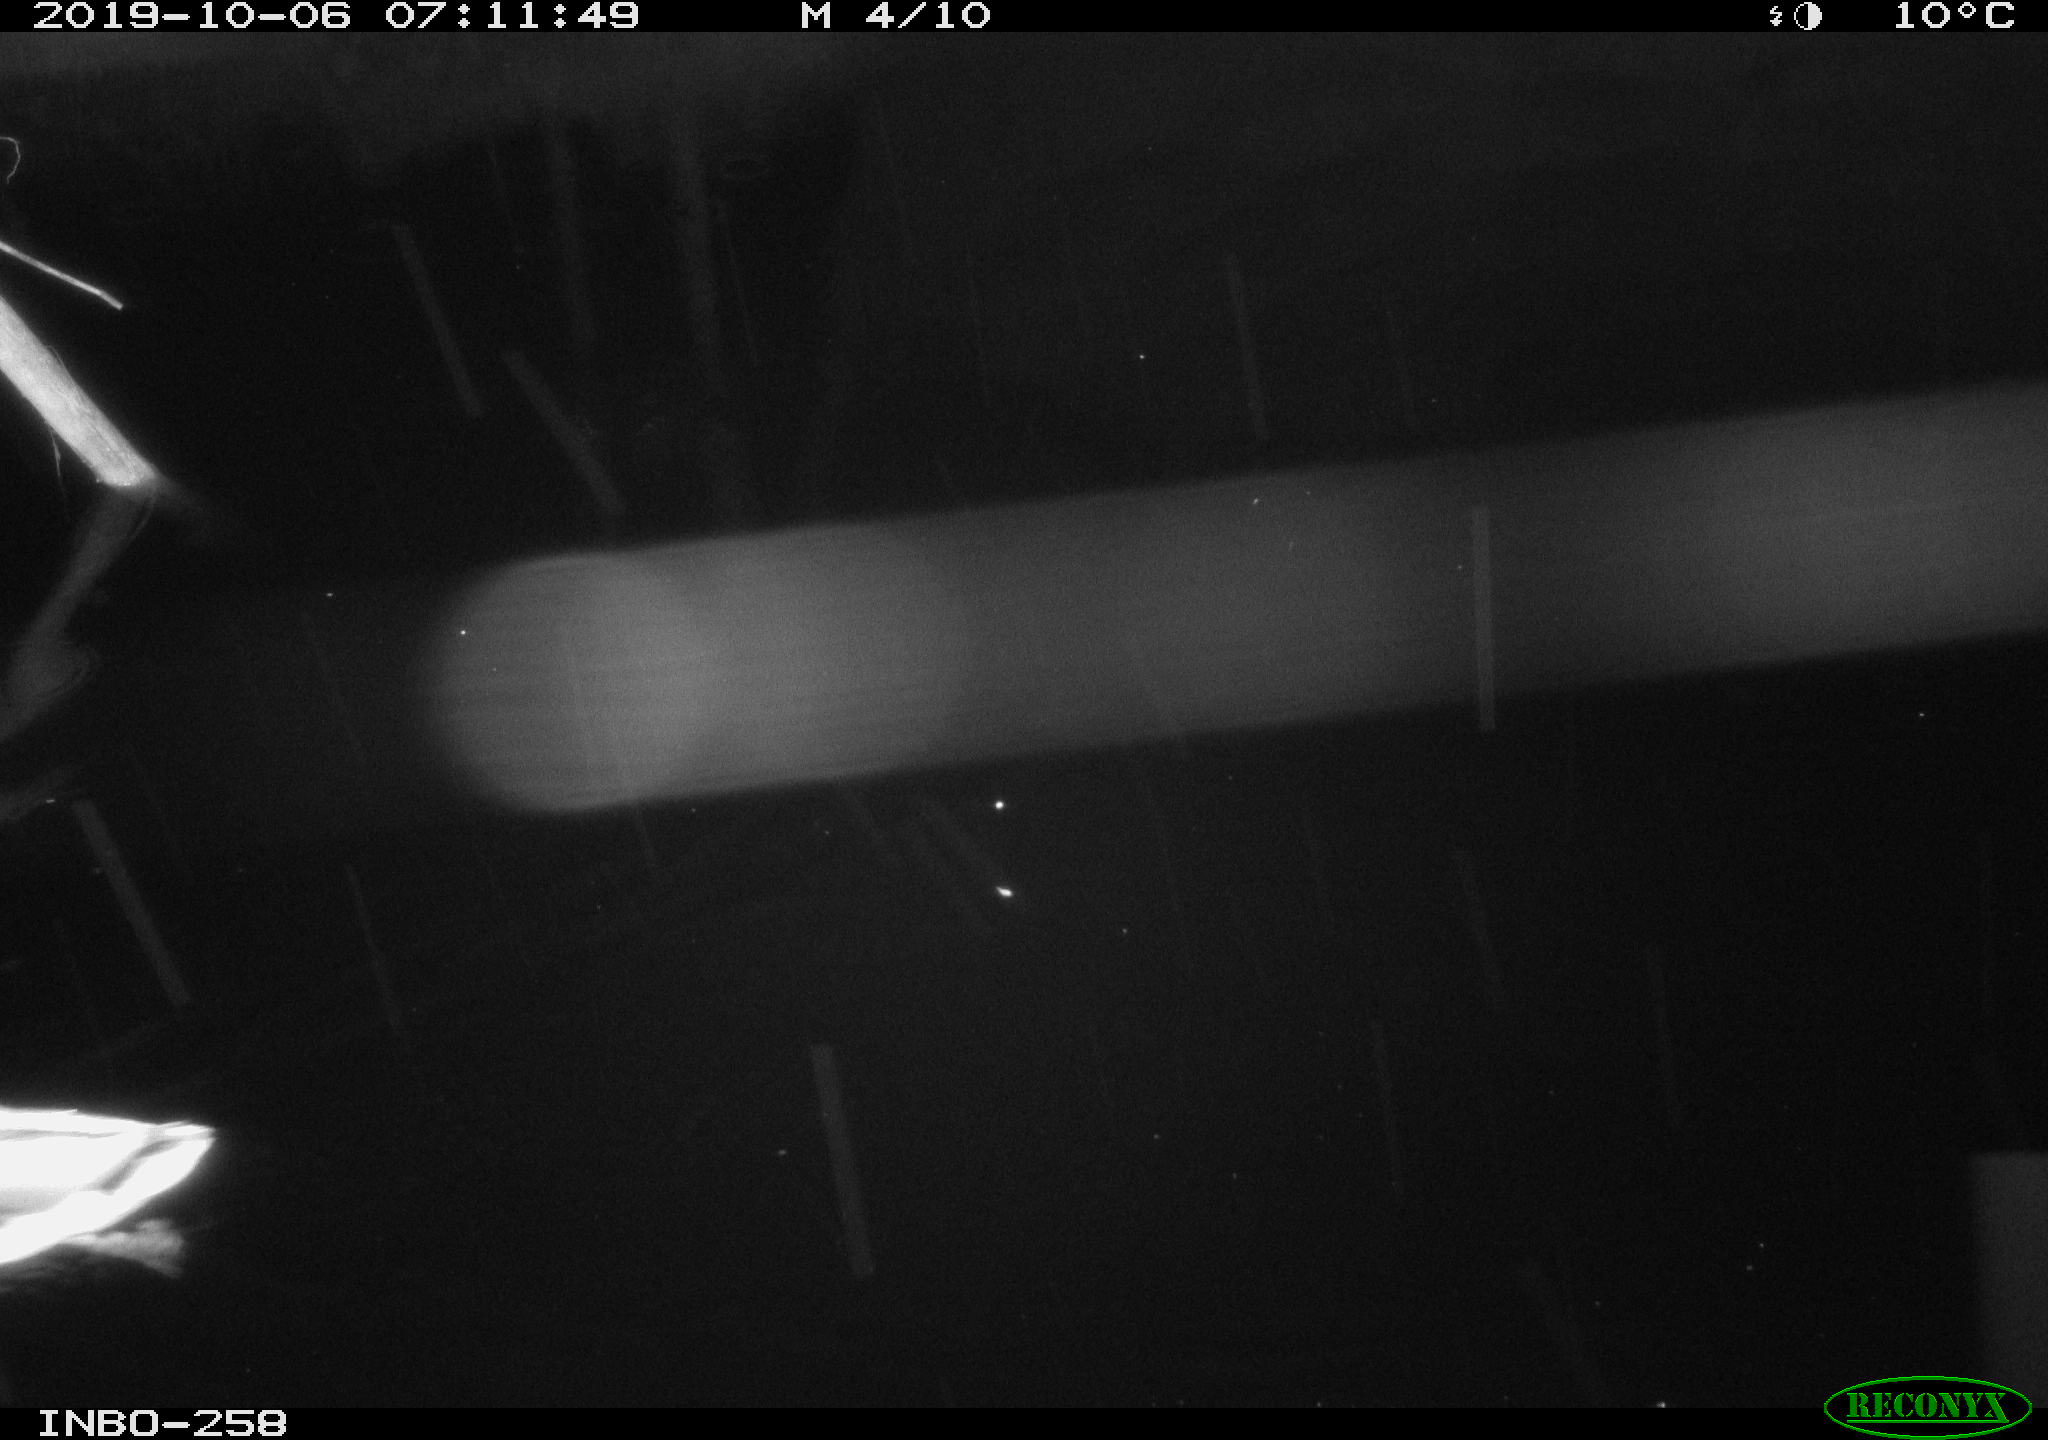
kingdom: Animalia
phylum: Chordata
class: Aves
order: Anseriformes
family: Anatidae
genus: Anas
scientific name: Anas platyrhynchos
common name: Mallard
